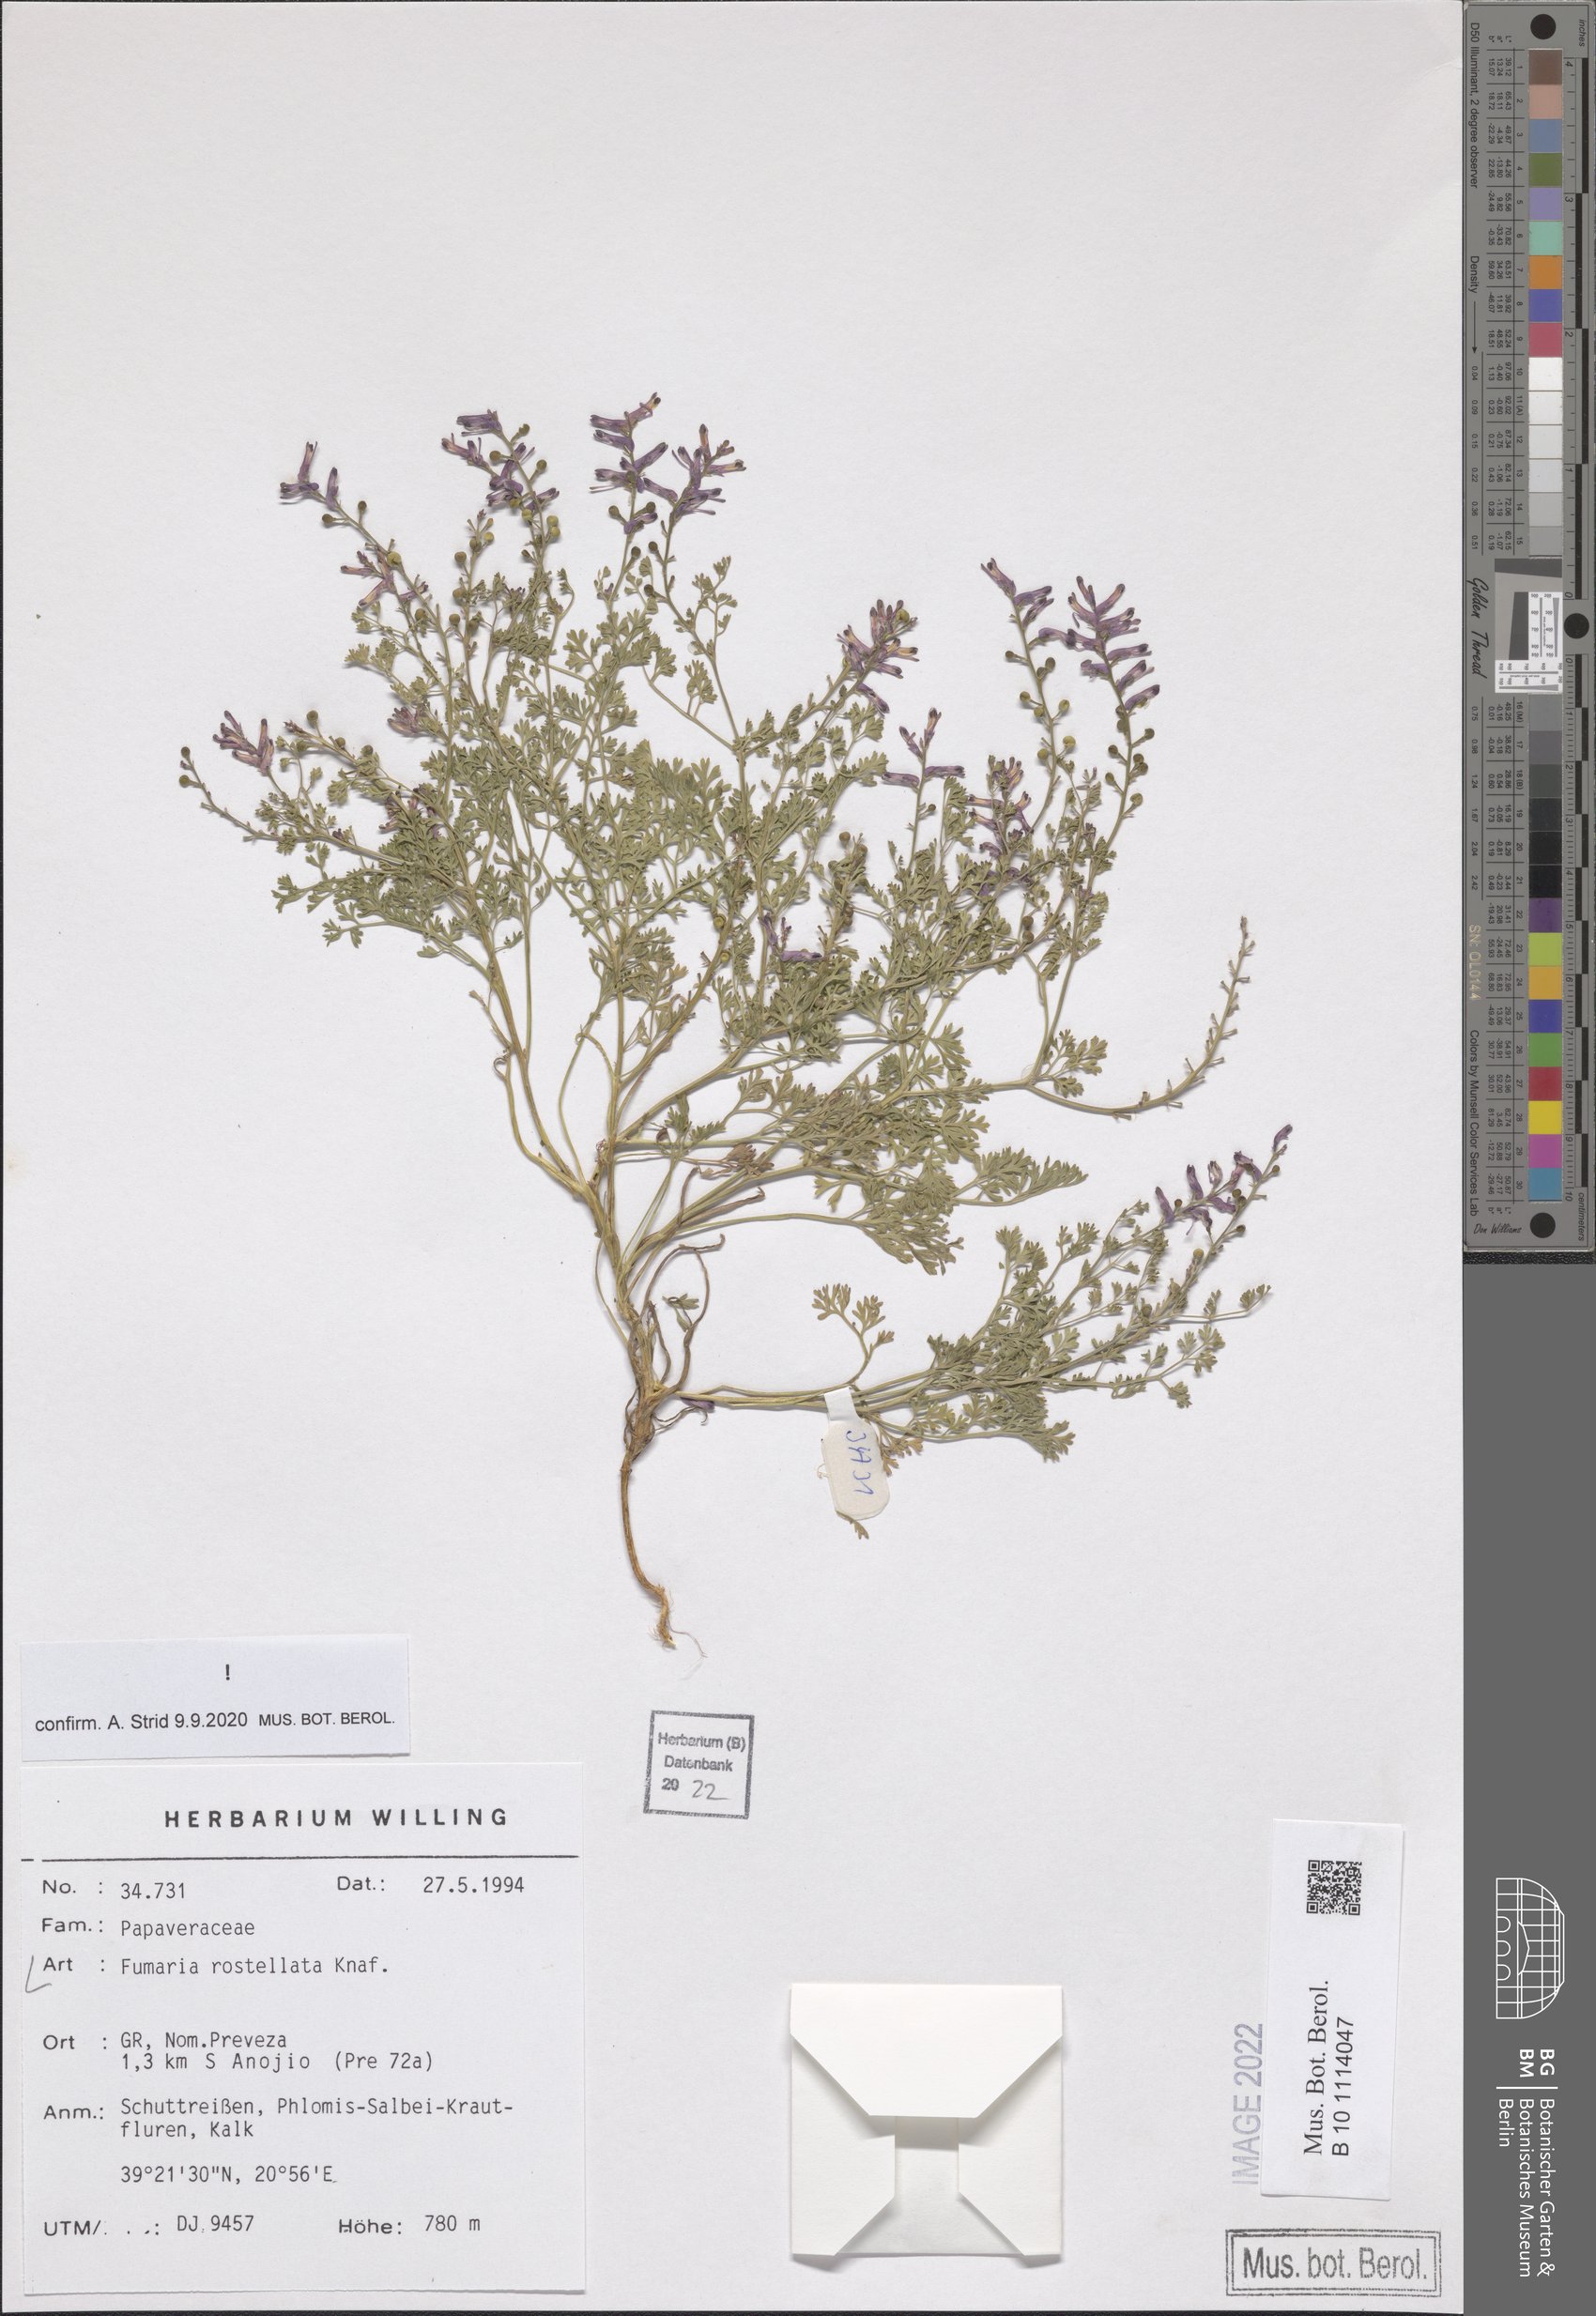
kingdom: Plantae
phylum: Tracheophyta
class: Magnoliopsida
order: Ranunculales
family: Papaveraceae
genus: Fumaria
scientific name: Fumaria rostellata
